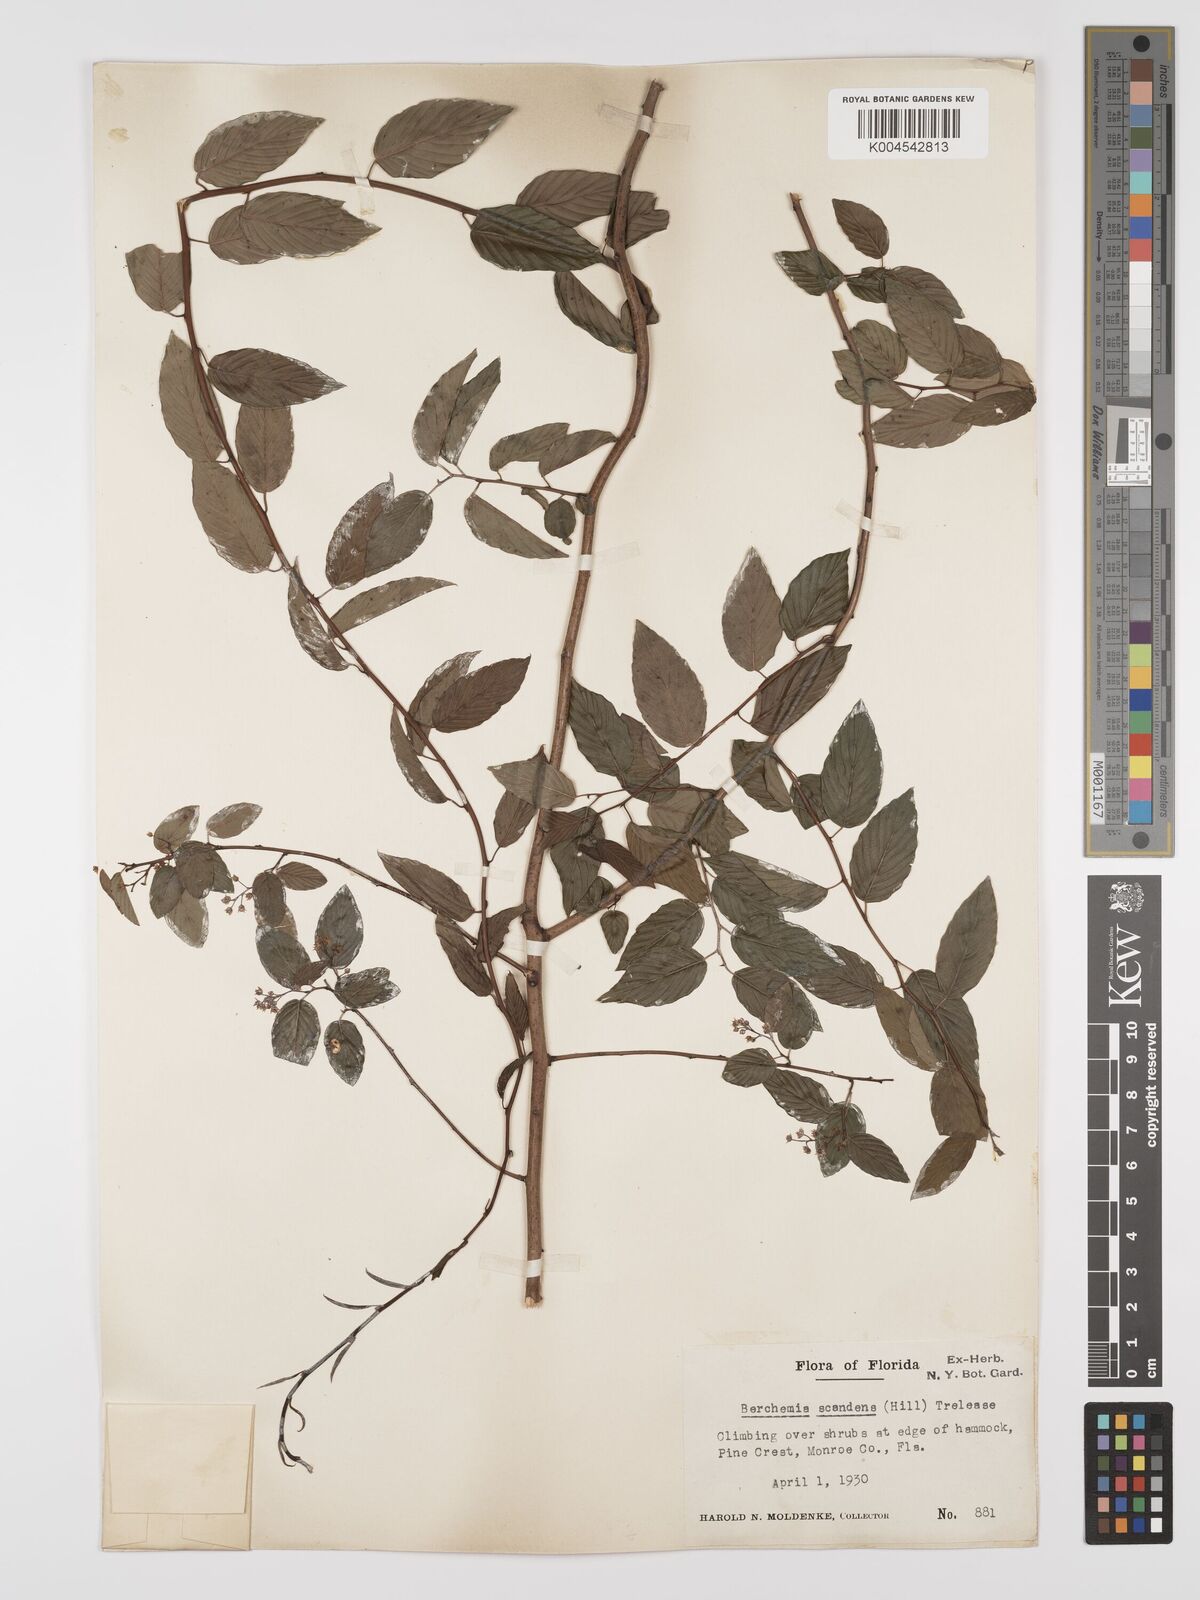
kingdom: Plantae
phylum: Tracheophyta
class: Magnoliopsida
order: Rosales
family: Rhamnaceae
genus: Berchemia
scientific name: Berchemia scandens
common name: Supplejack
